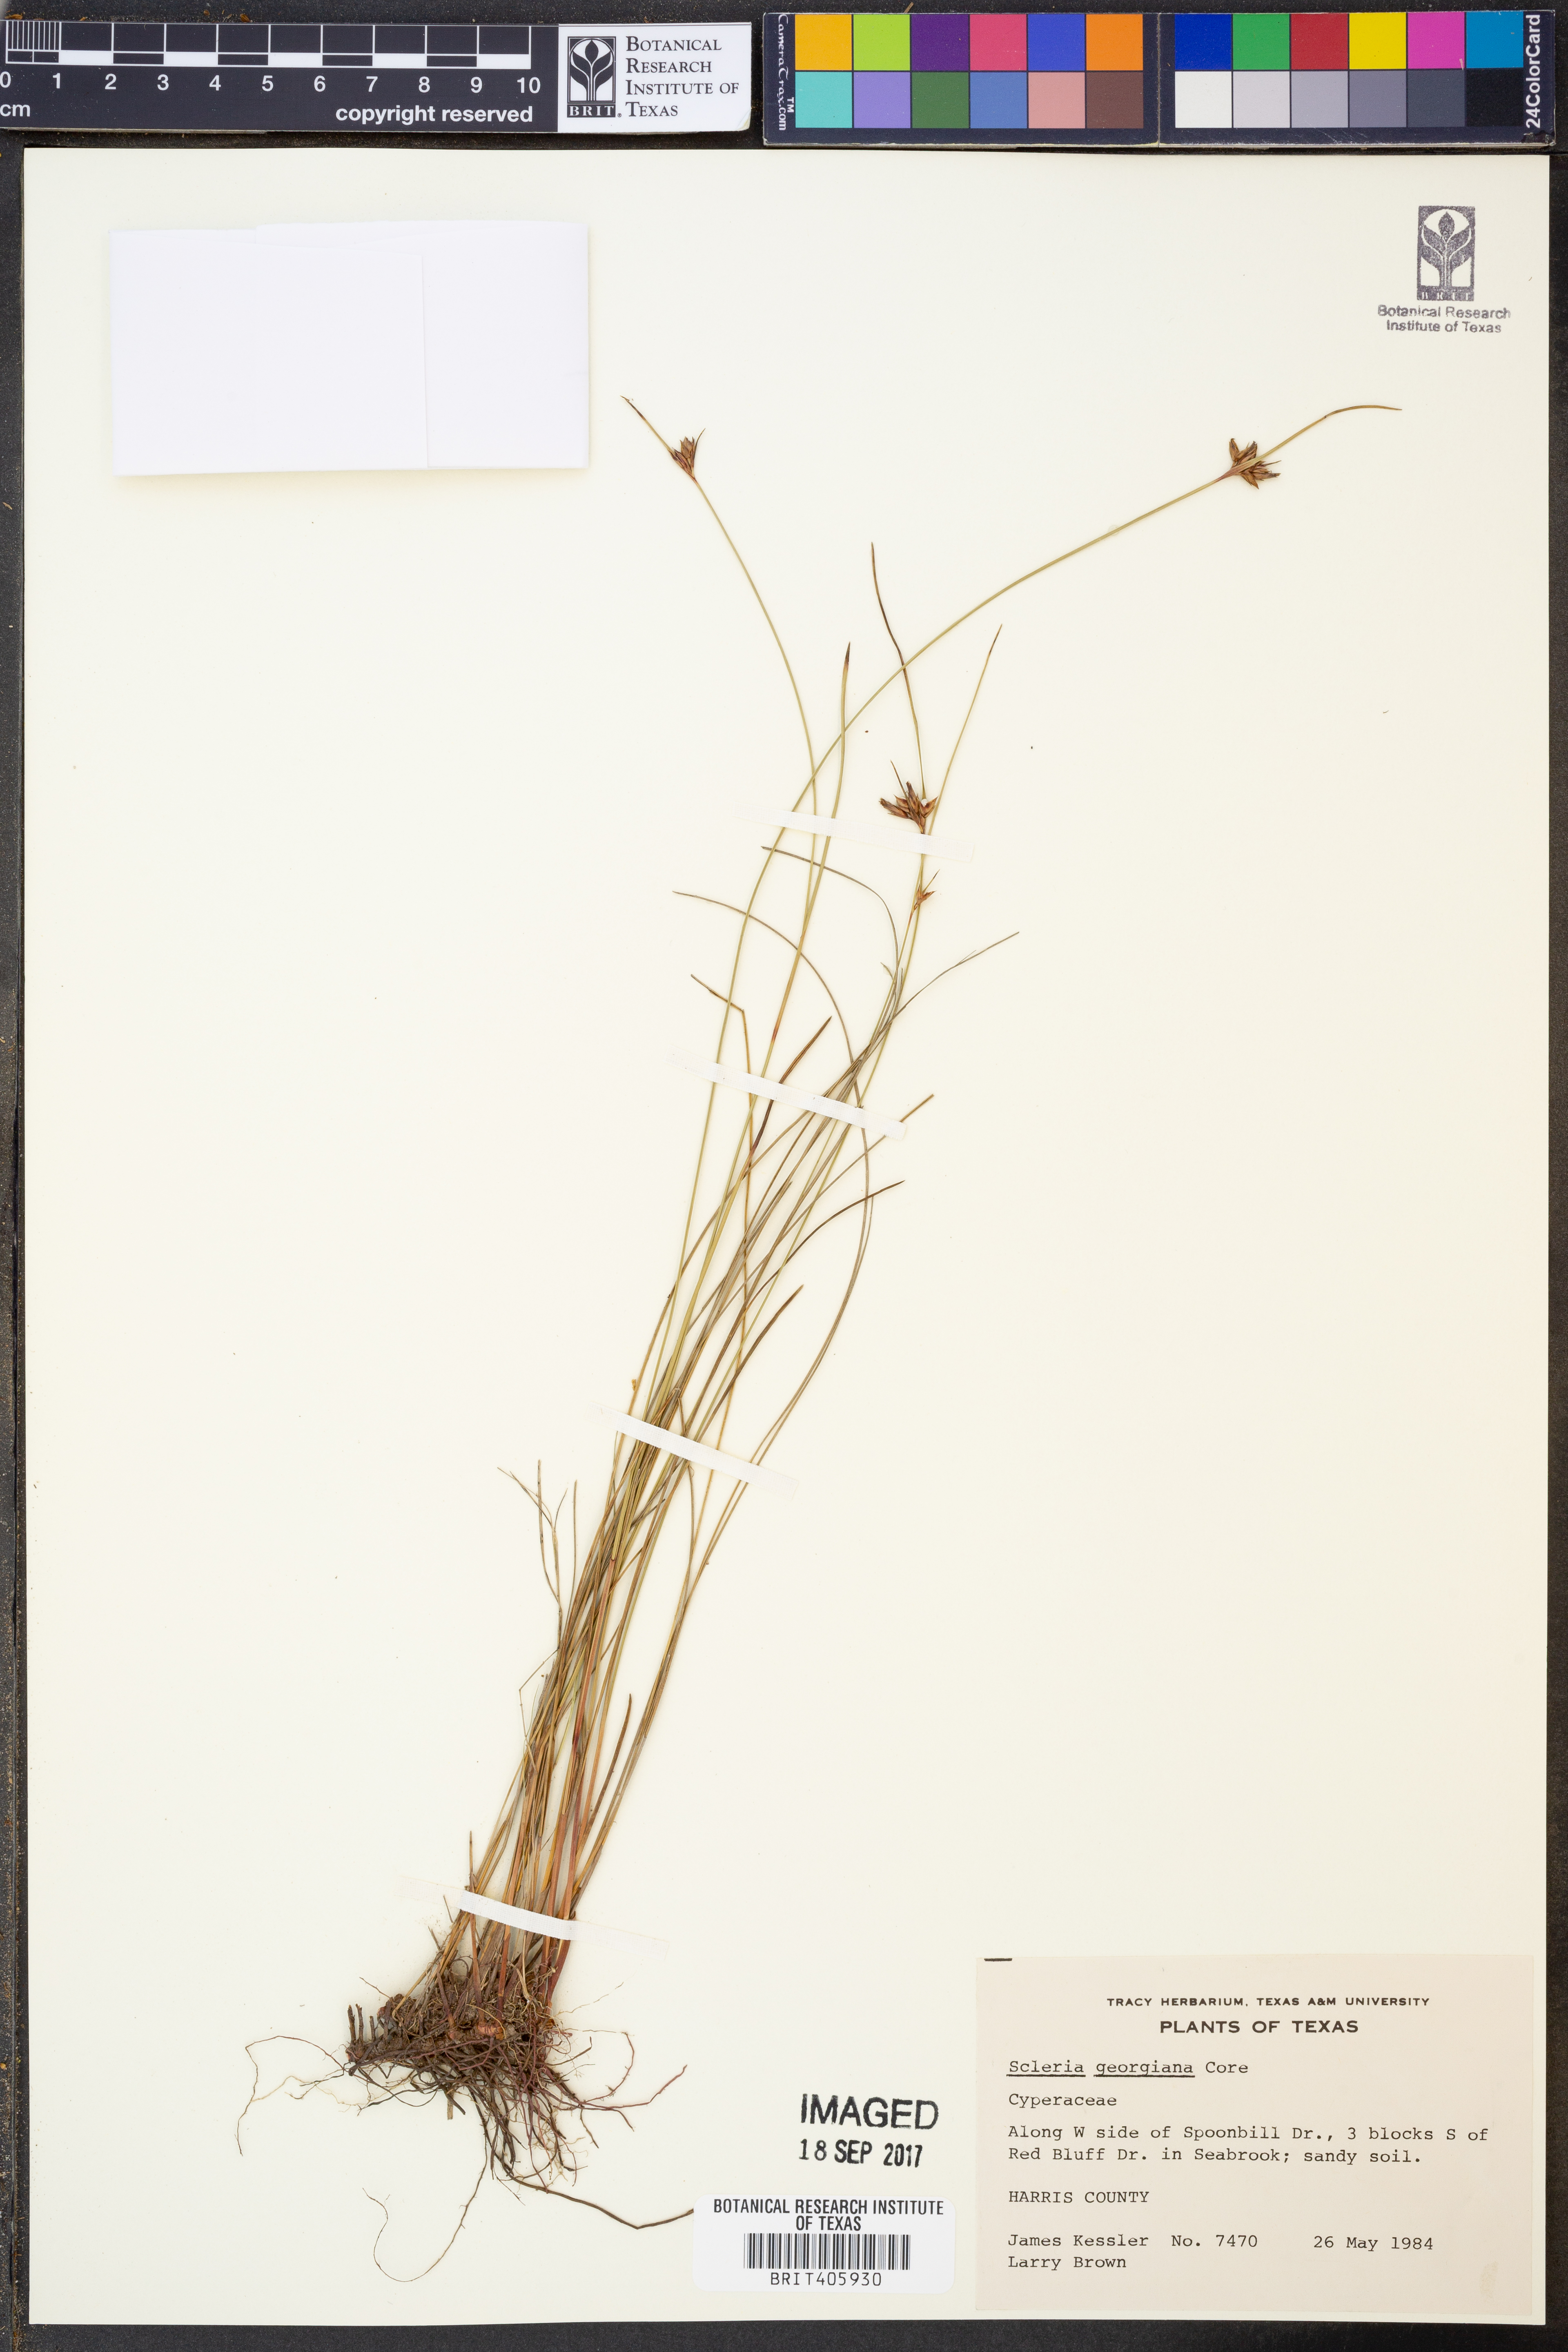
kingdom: Plantae
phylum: Tracheophyta
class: Liliopsida
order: Poales
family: Cyperaceae
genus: Scleria
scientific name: Scleria georgiana
